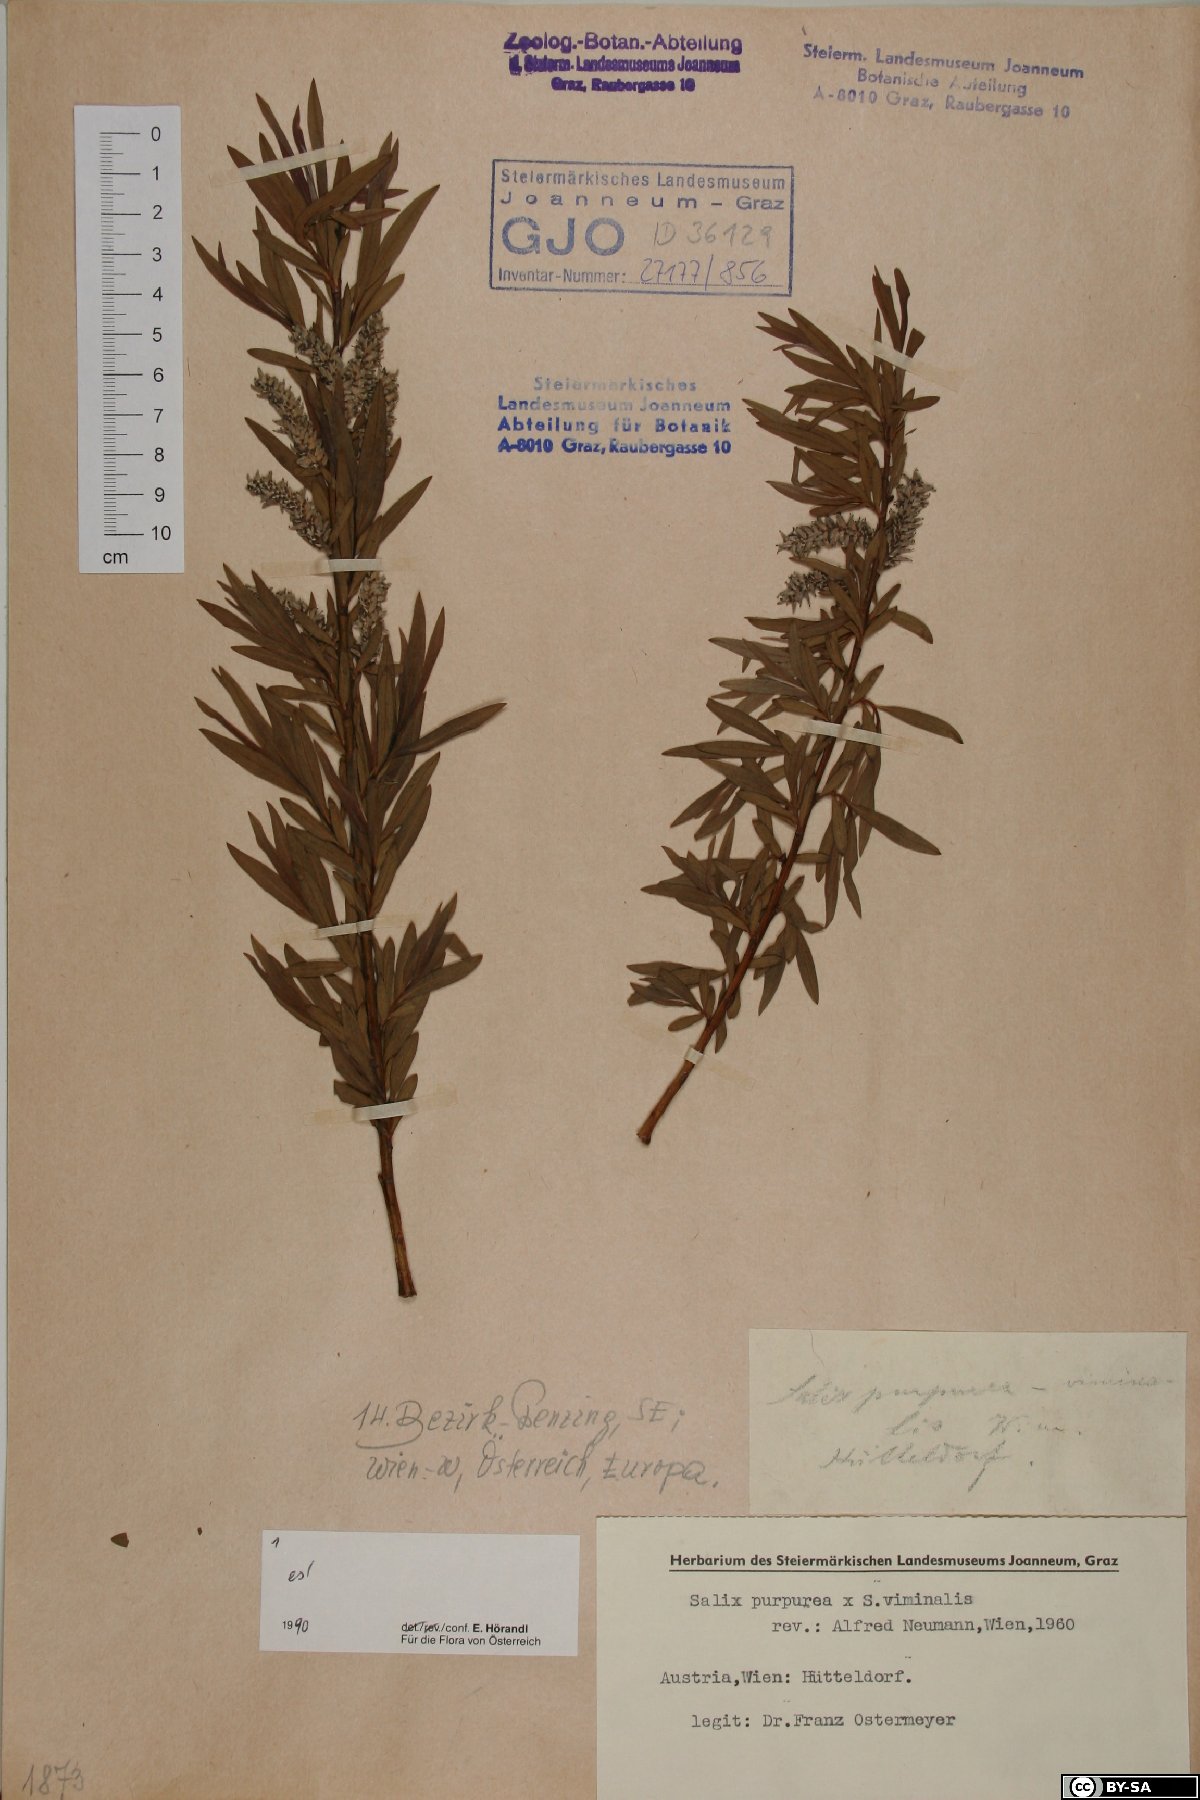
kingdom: Plantae
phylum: Tracheophyta
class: Magnoliopsida
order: Malpighiales
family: Salicaceae
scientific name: Salicaceae
